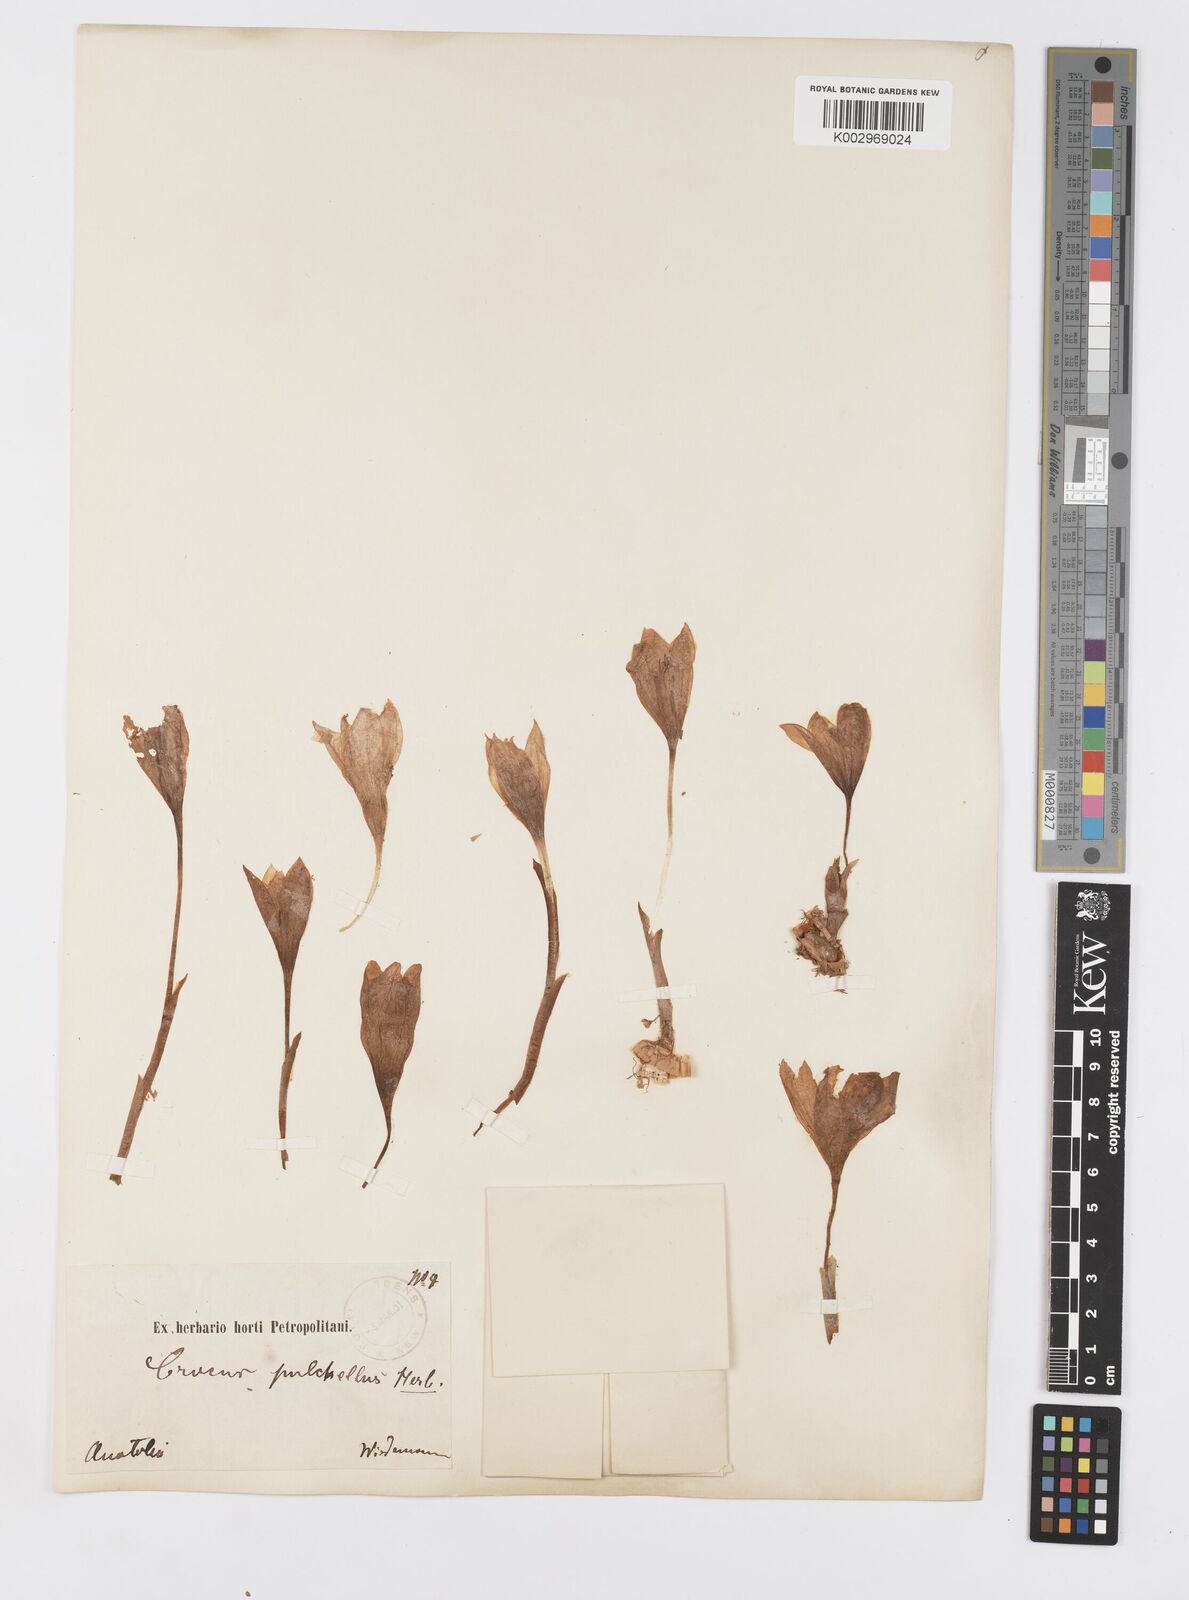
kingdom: Plantae
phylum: Tracheophyta
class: Liliopsida
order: Asparagales
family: Iridaceae
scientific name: Iridaceae
